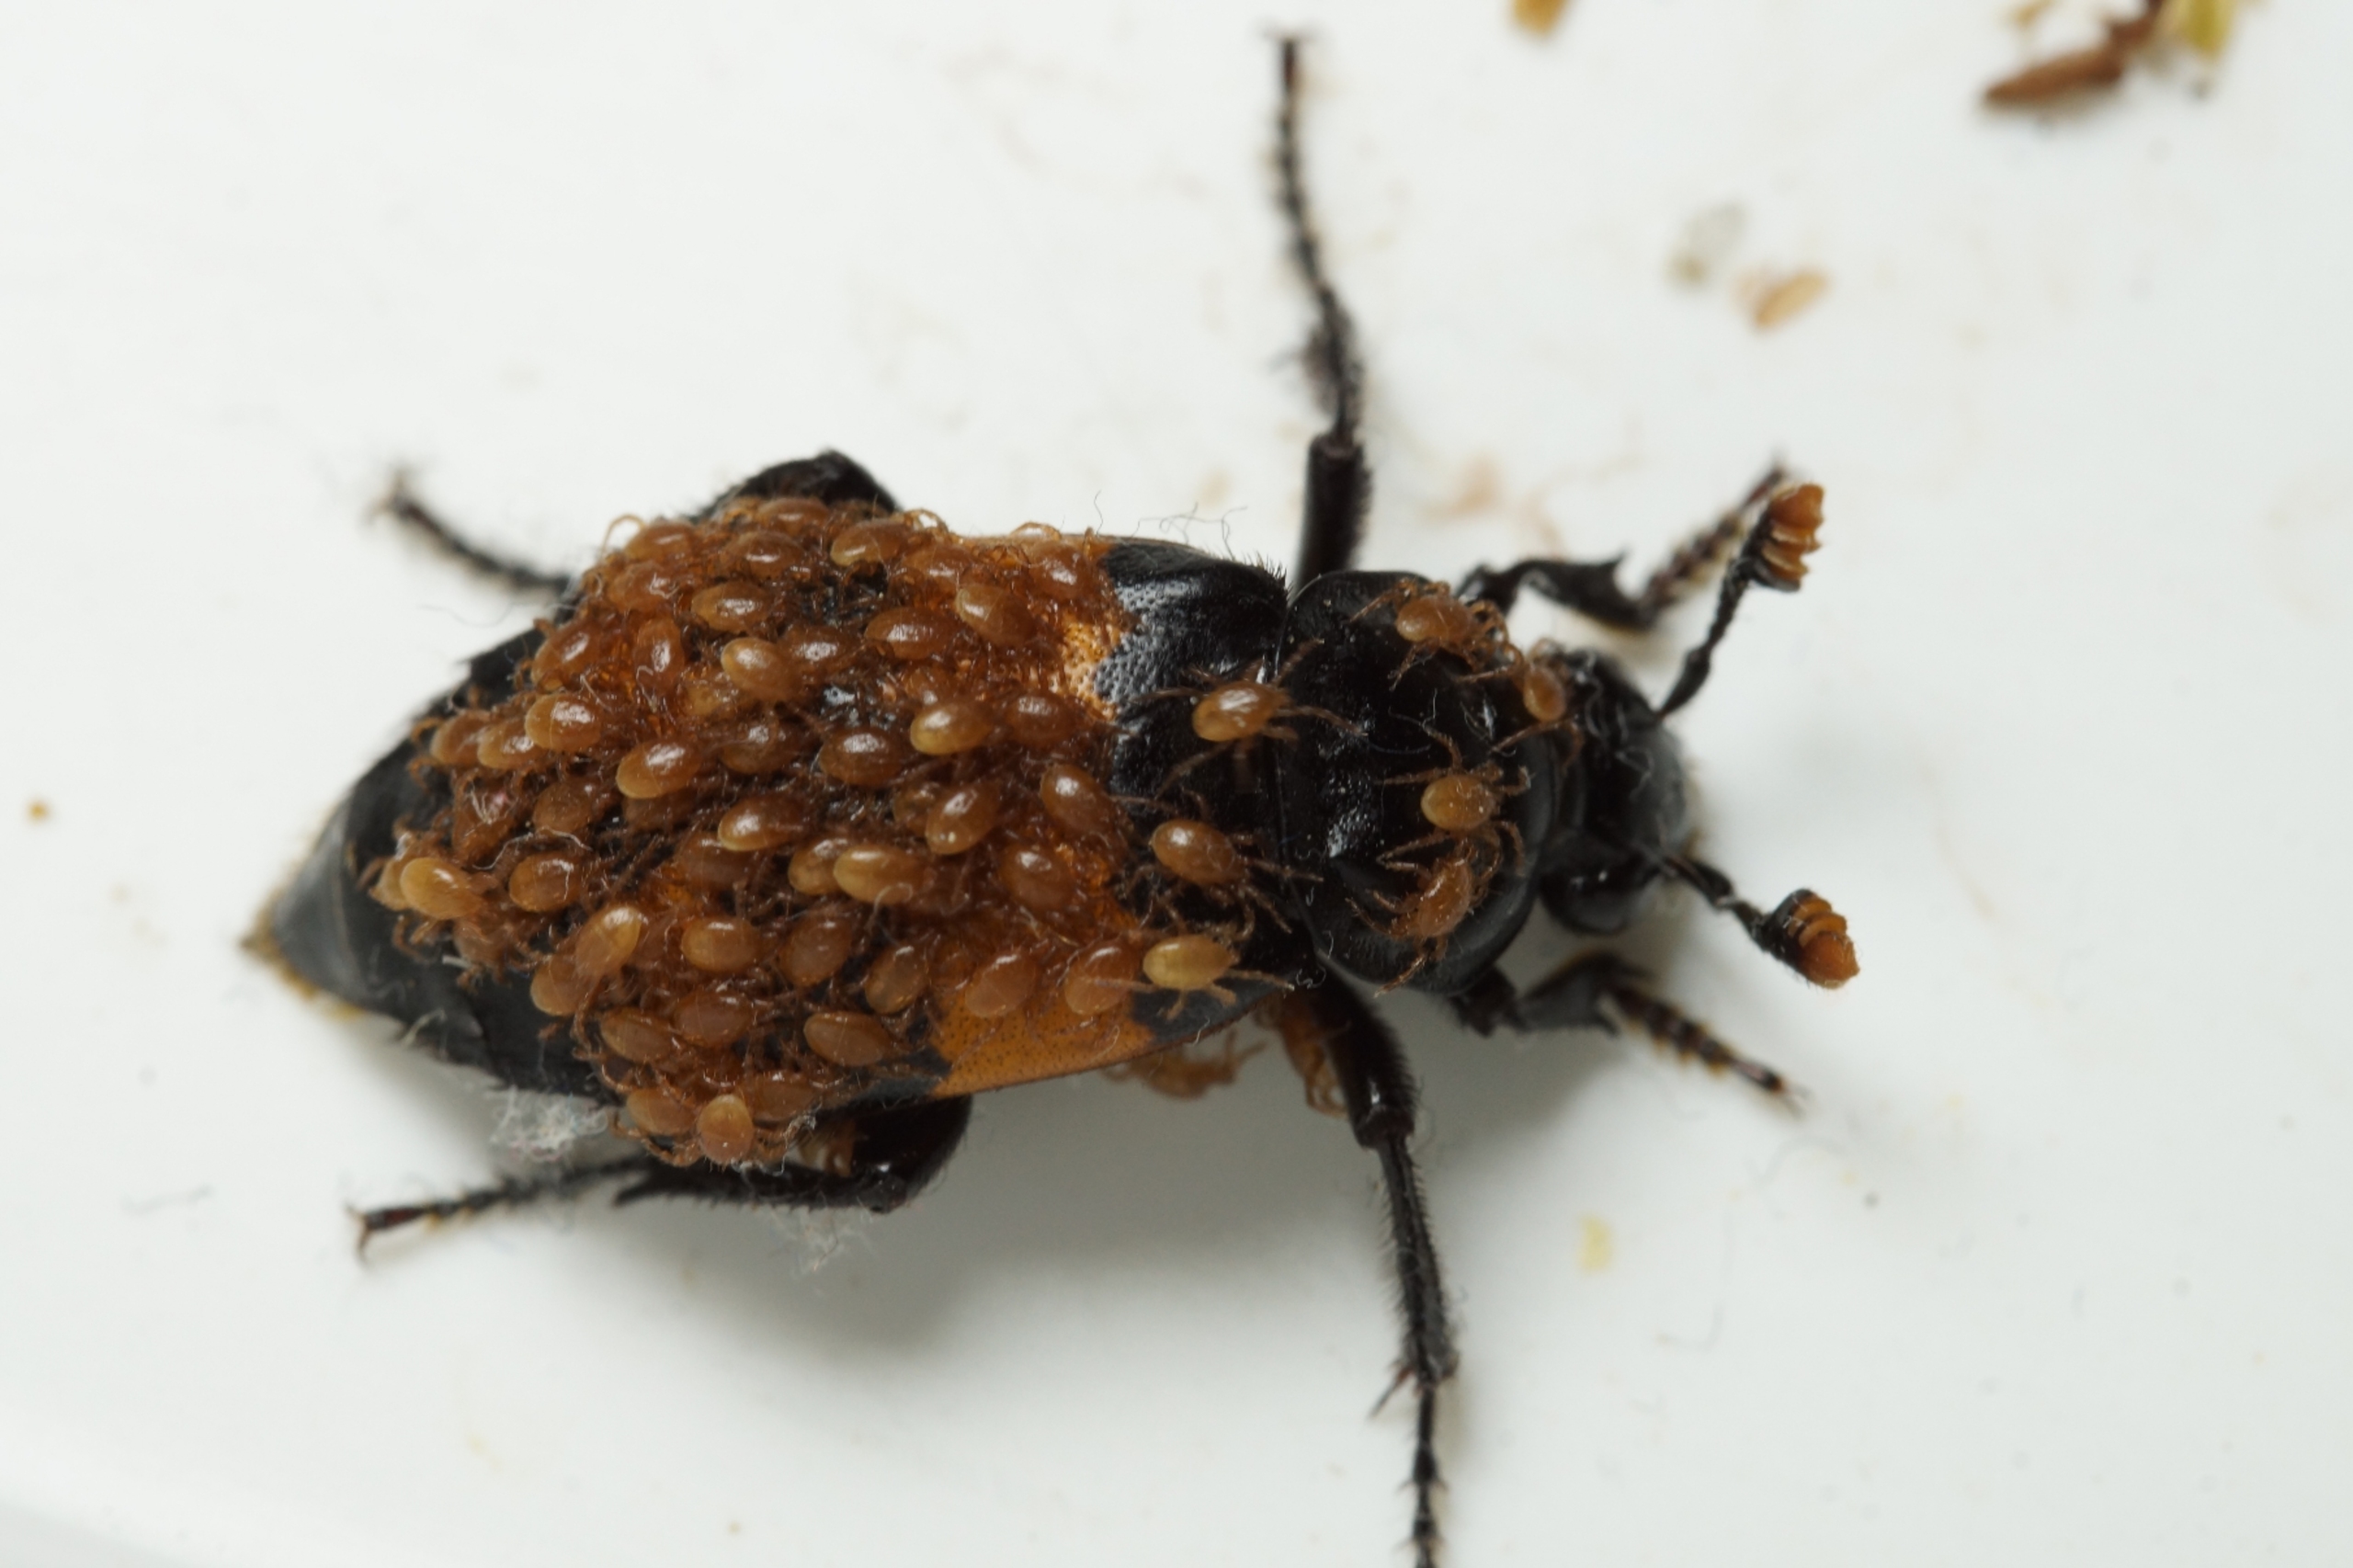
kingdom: Animalia
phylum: Arthropoda
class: Insecta
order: Coleoptera
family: Staphylinidae
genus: Nicrophorus
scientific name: Nicrophorus investigator
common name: Skovådselgraver
